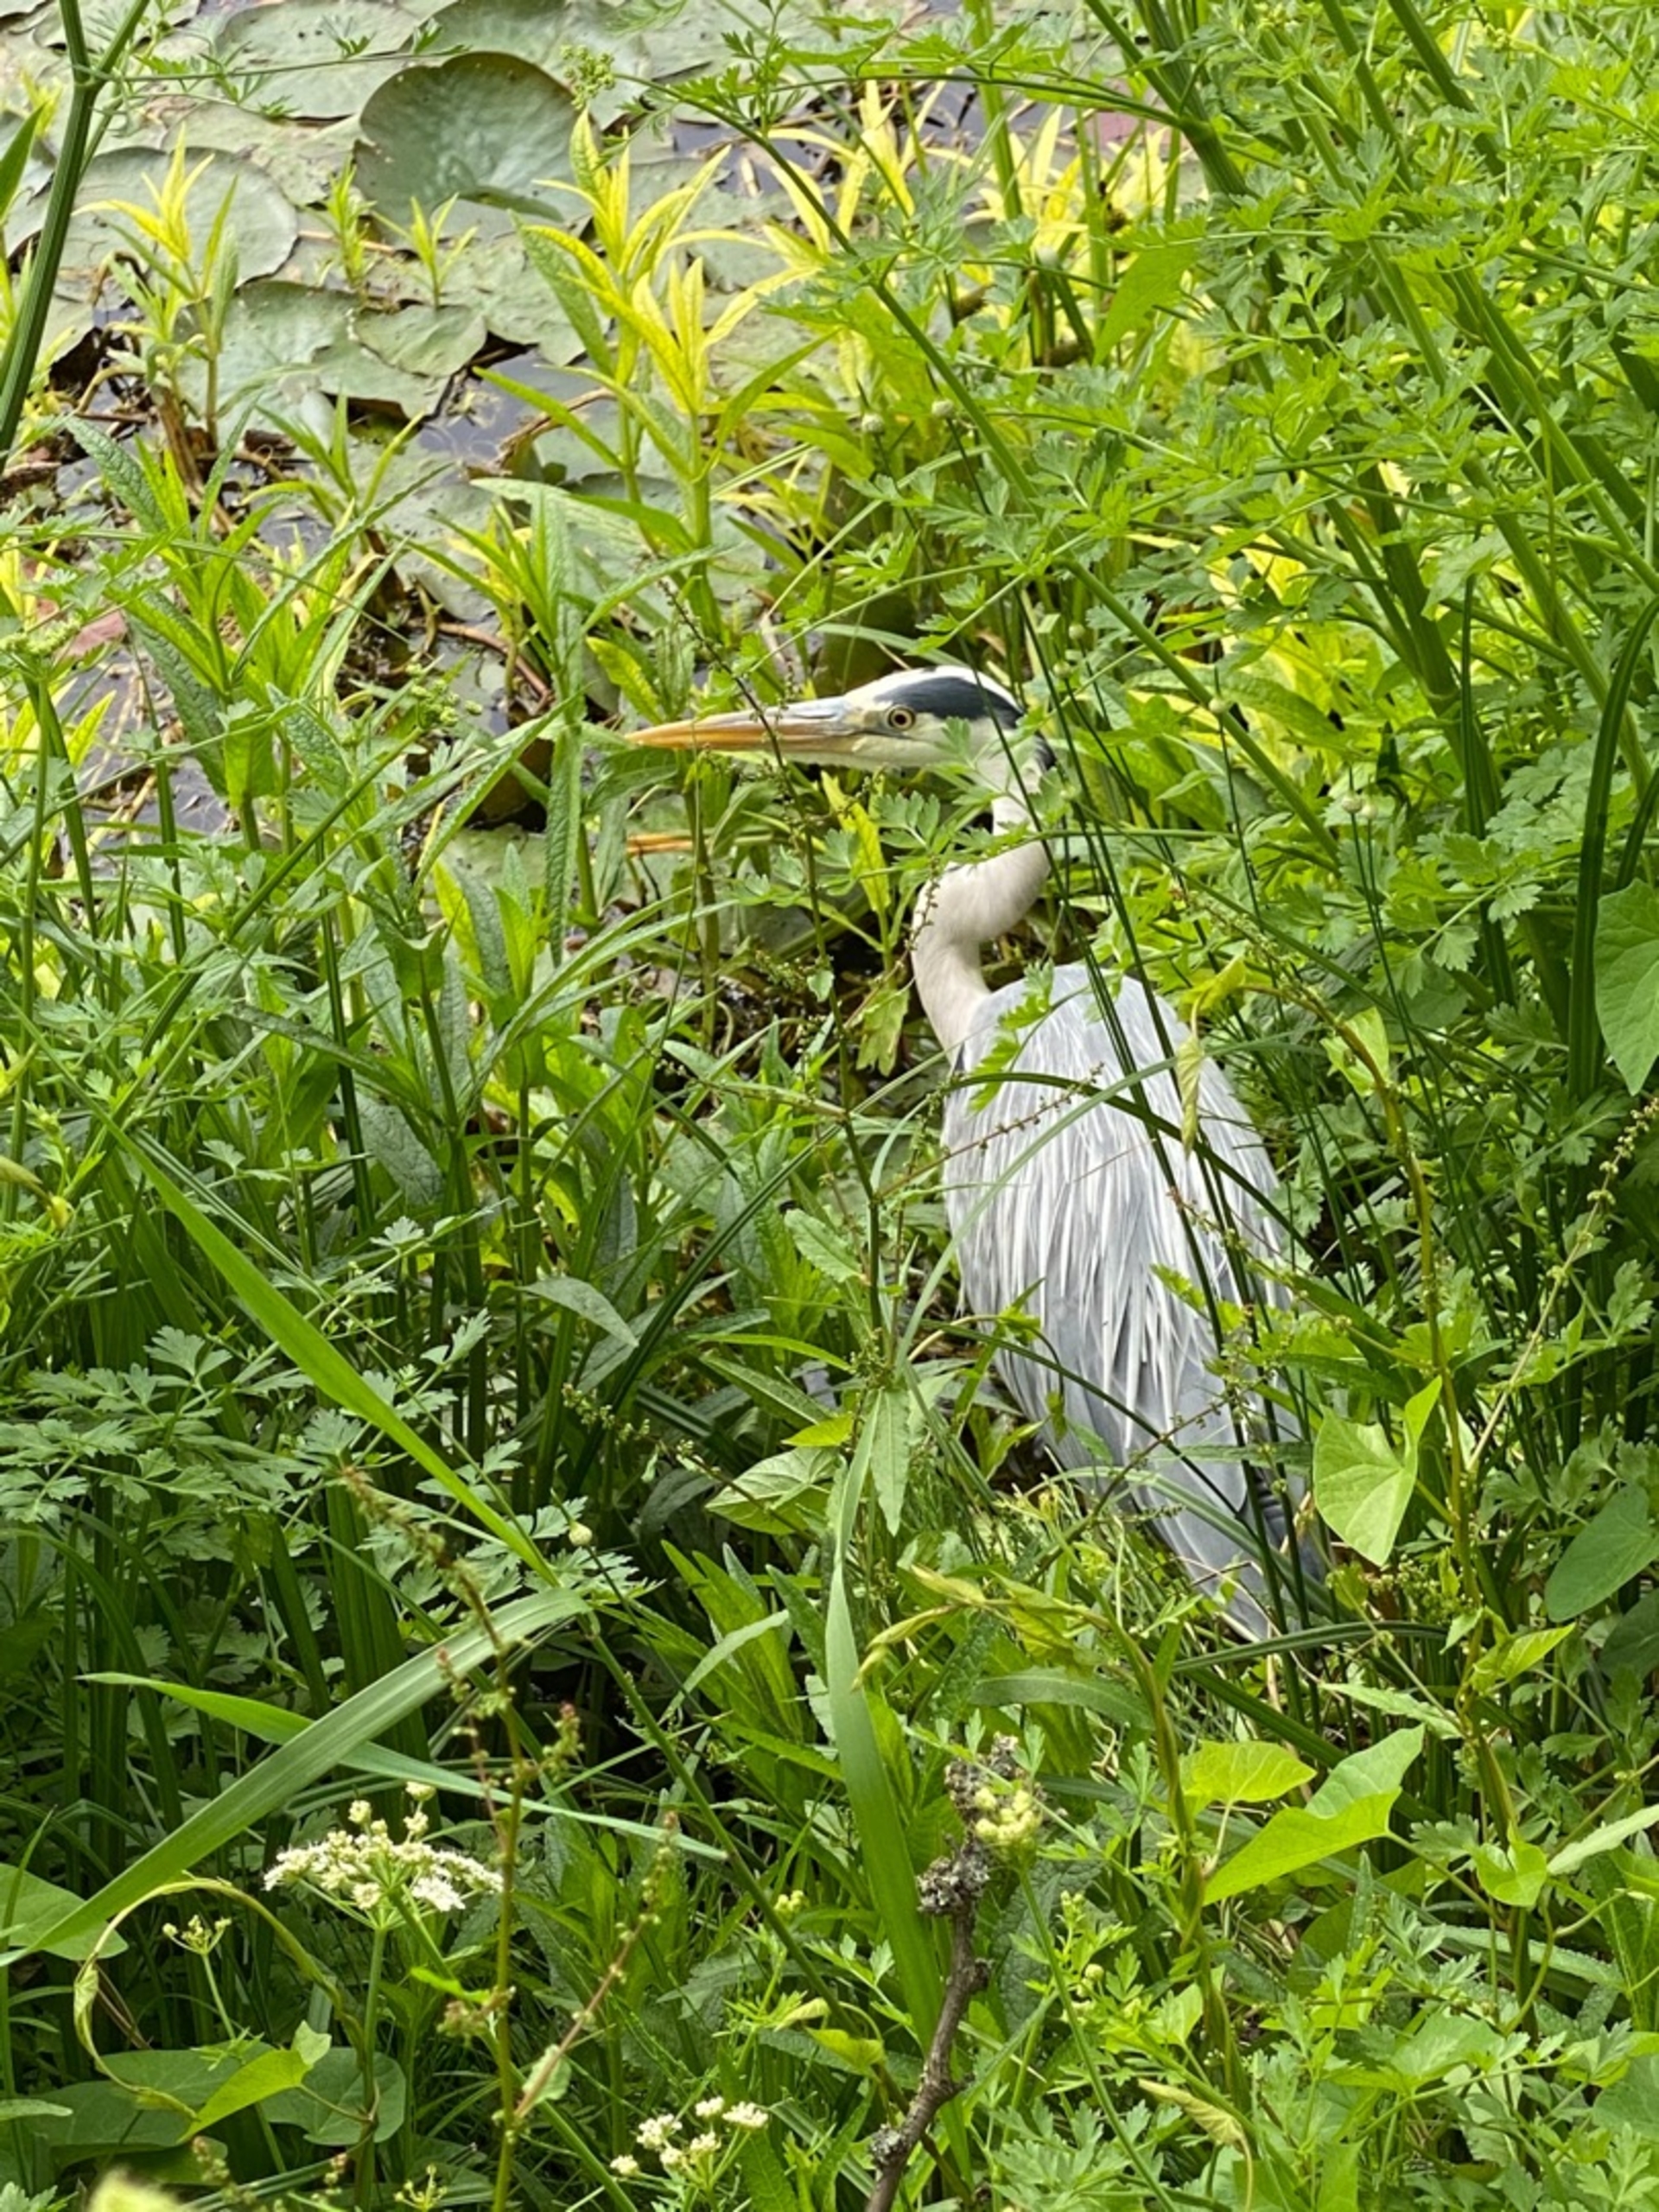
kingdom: Animalia
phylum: Chordata
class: Aves
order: Pelecaniformes
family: Ardeidae
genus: Ardea
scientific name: Ardea cinerea
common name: Fiskehejre
